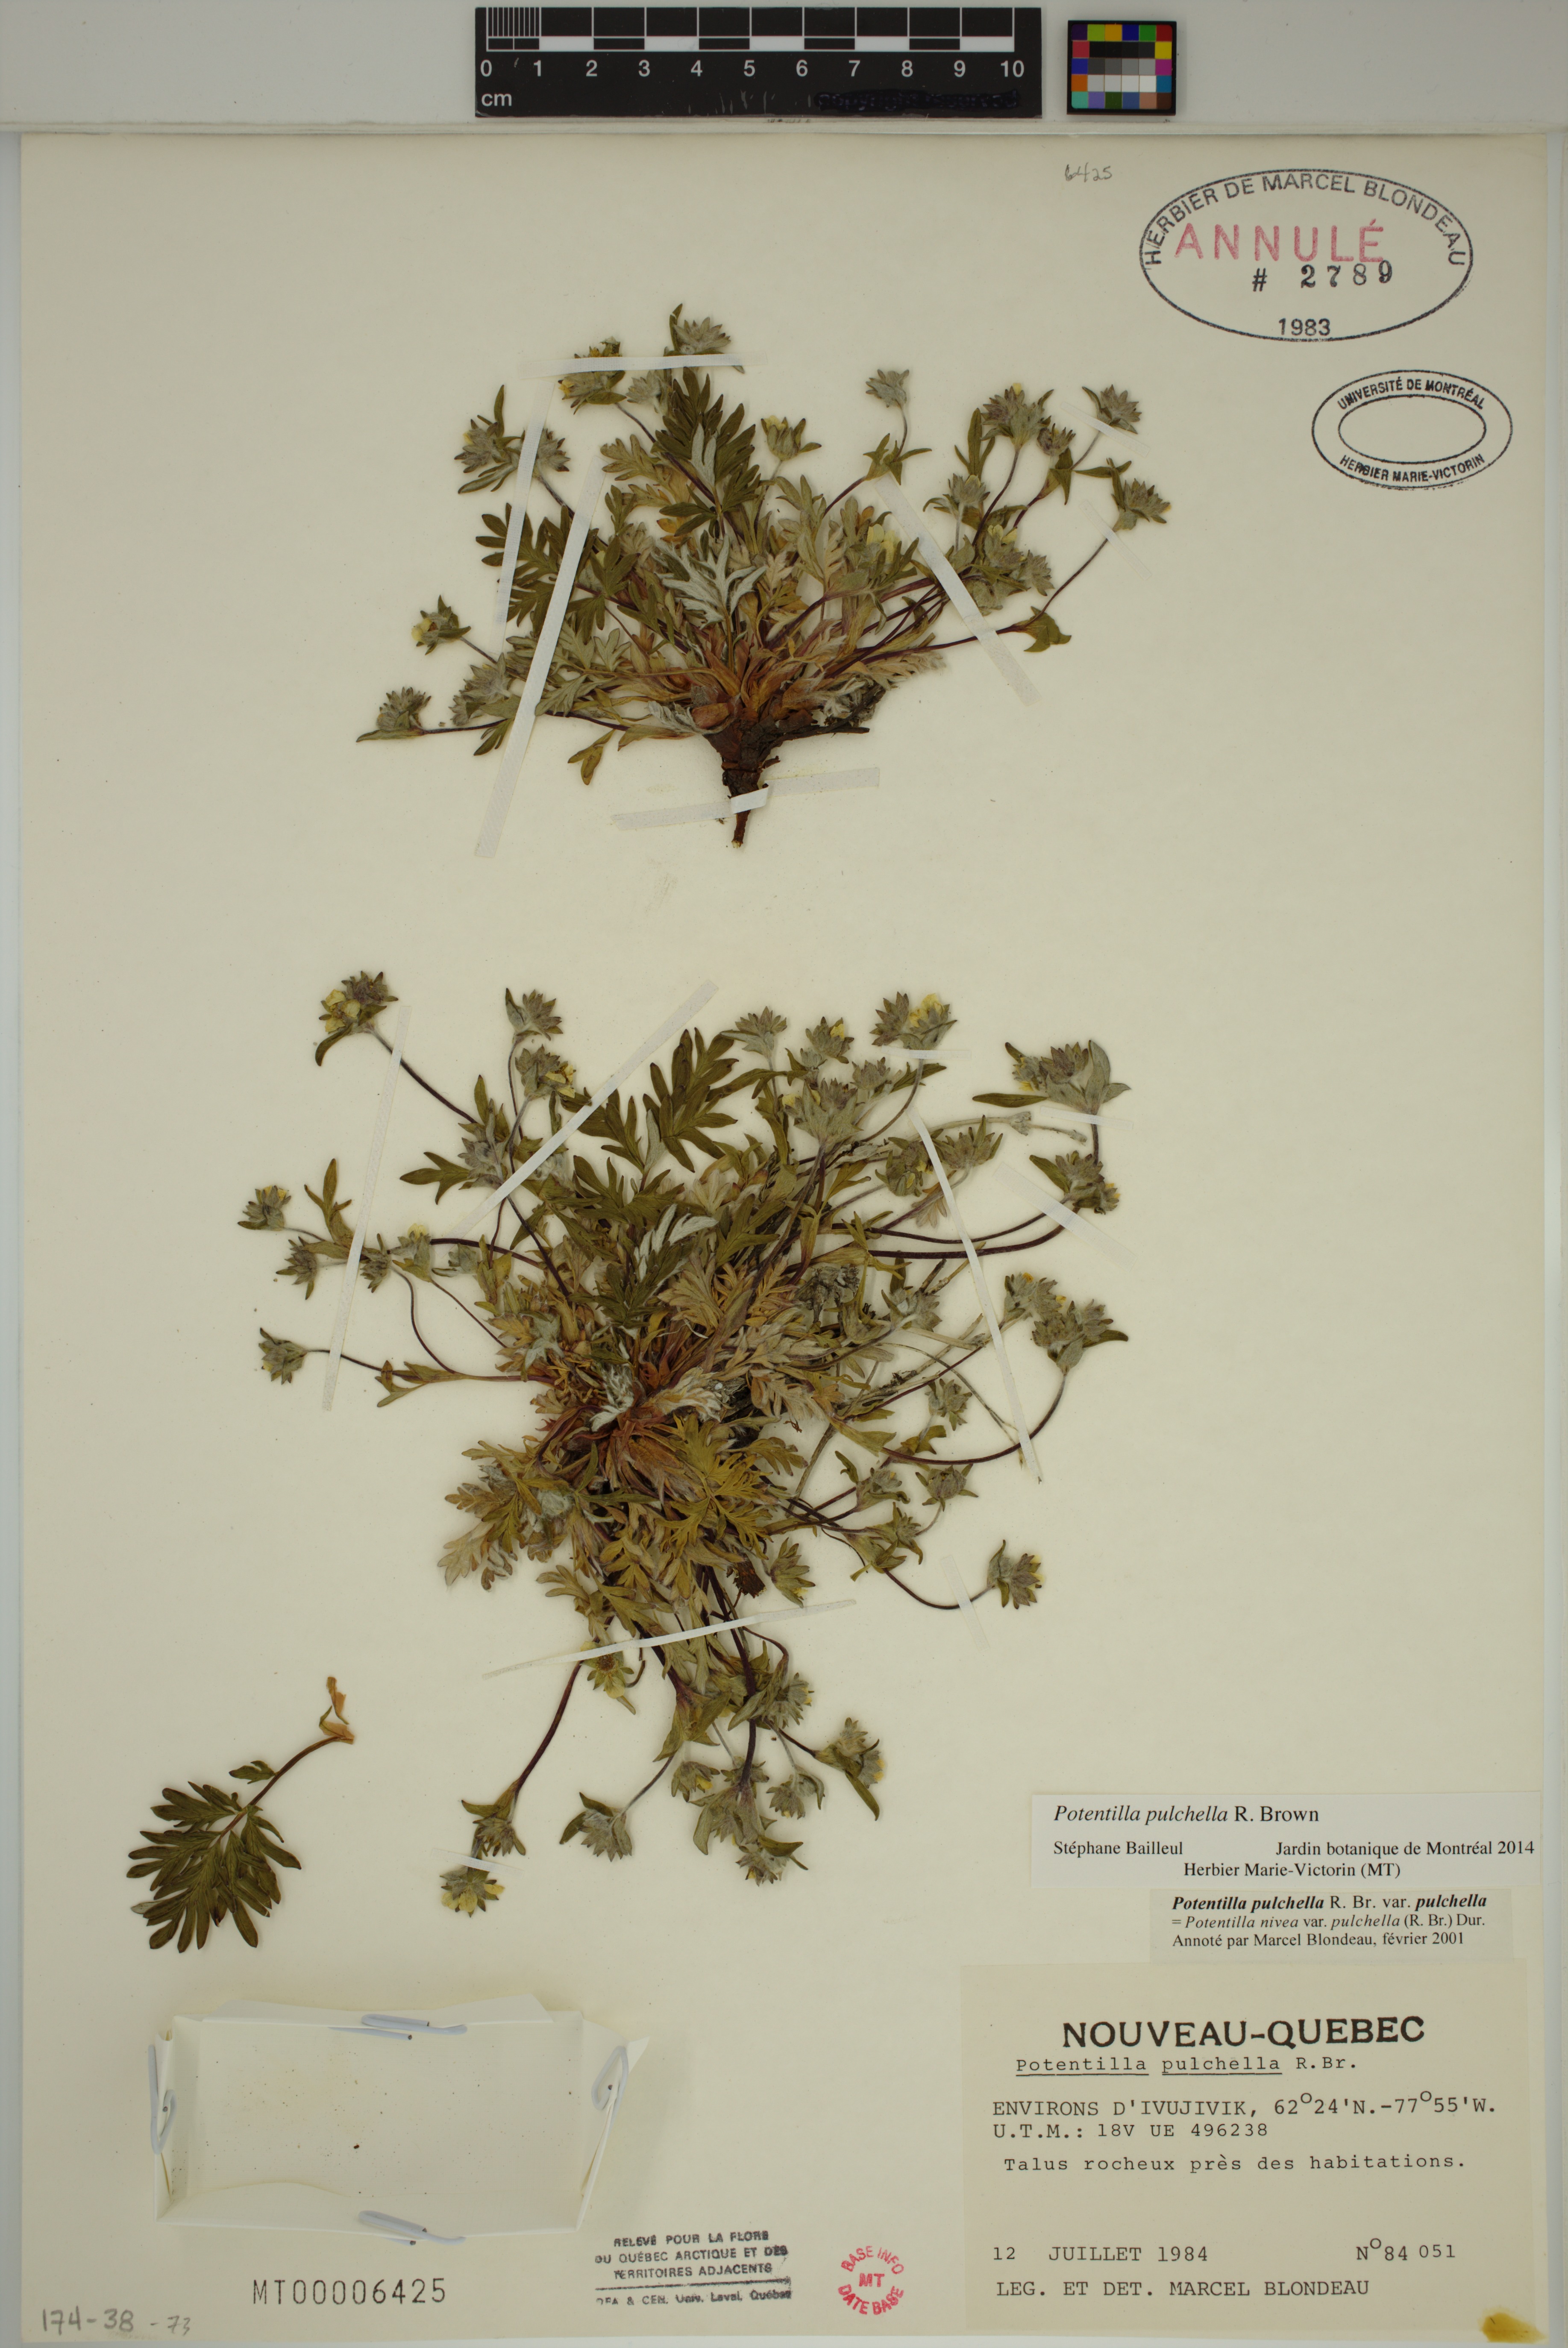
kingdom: Plantae
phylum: Tracheophyta
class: Magnoliopsida
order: Rosales
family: Rosaceae
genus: Potentilla
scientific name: Potentilla pulchella
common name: Pretty cinquefoil
